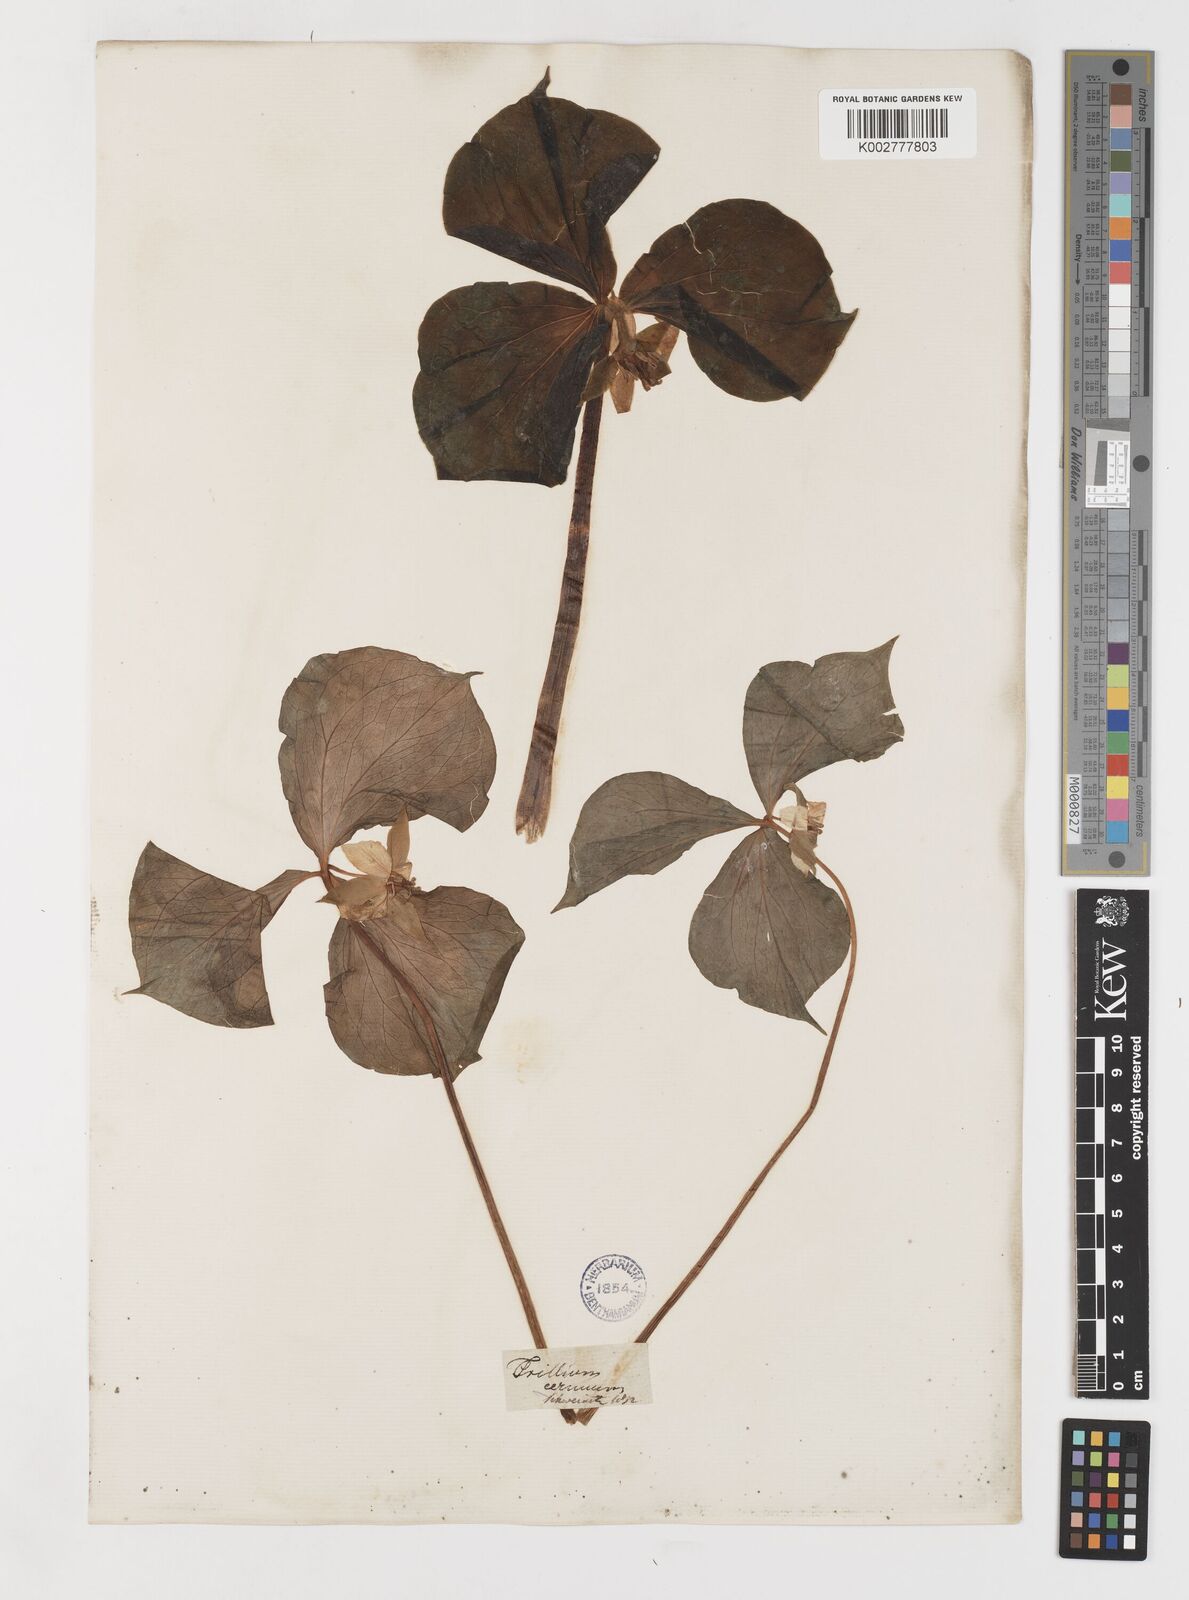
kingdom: Plantae
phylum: Tracheophyta
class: Liliopsida
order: Liliales
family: Melanthiaceae
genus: Trillium
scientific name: Trillium cernuum
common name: Nodding trillium
